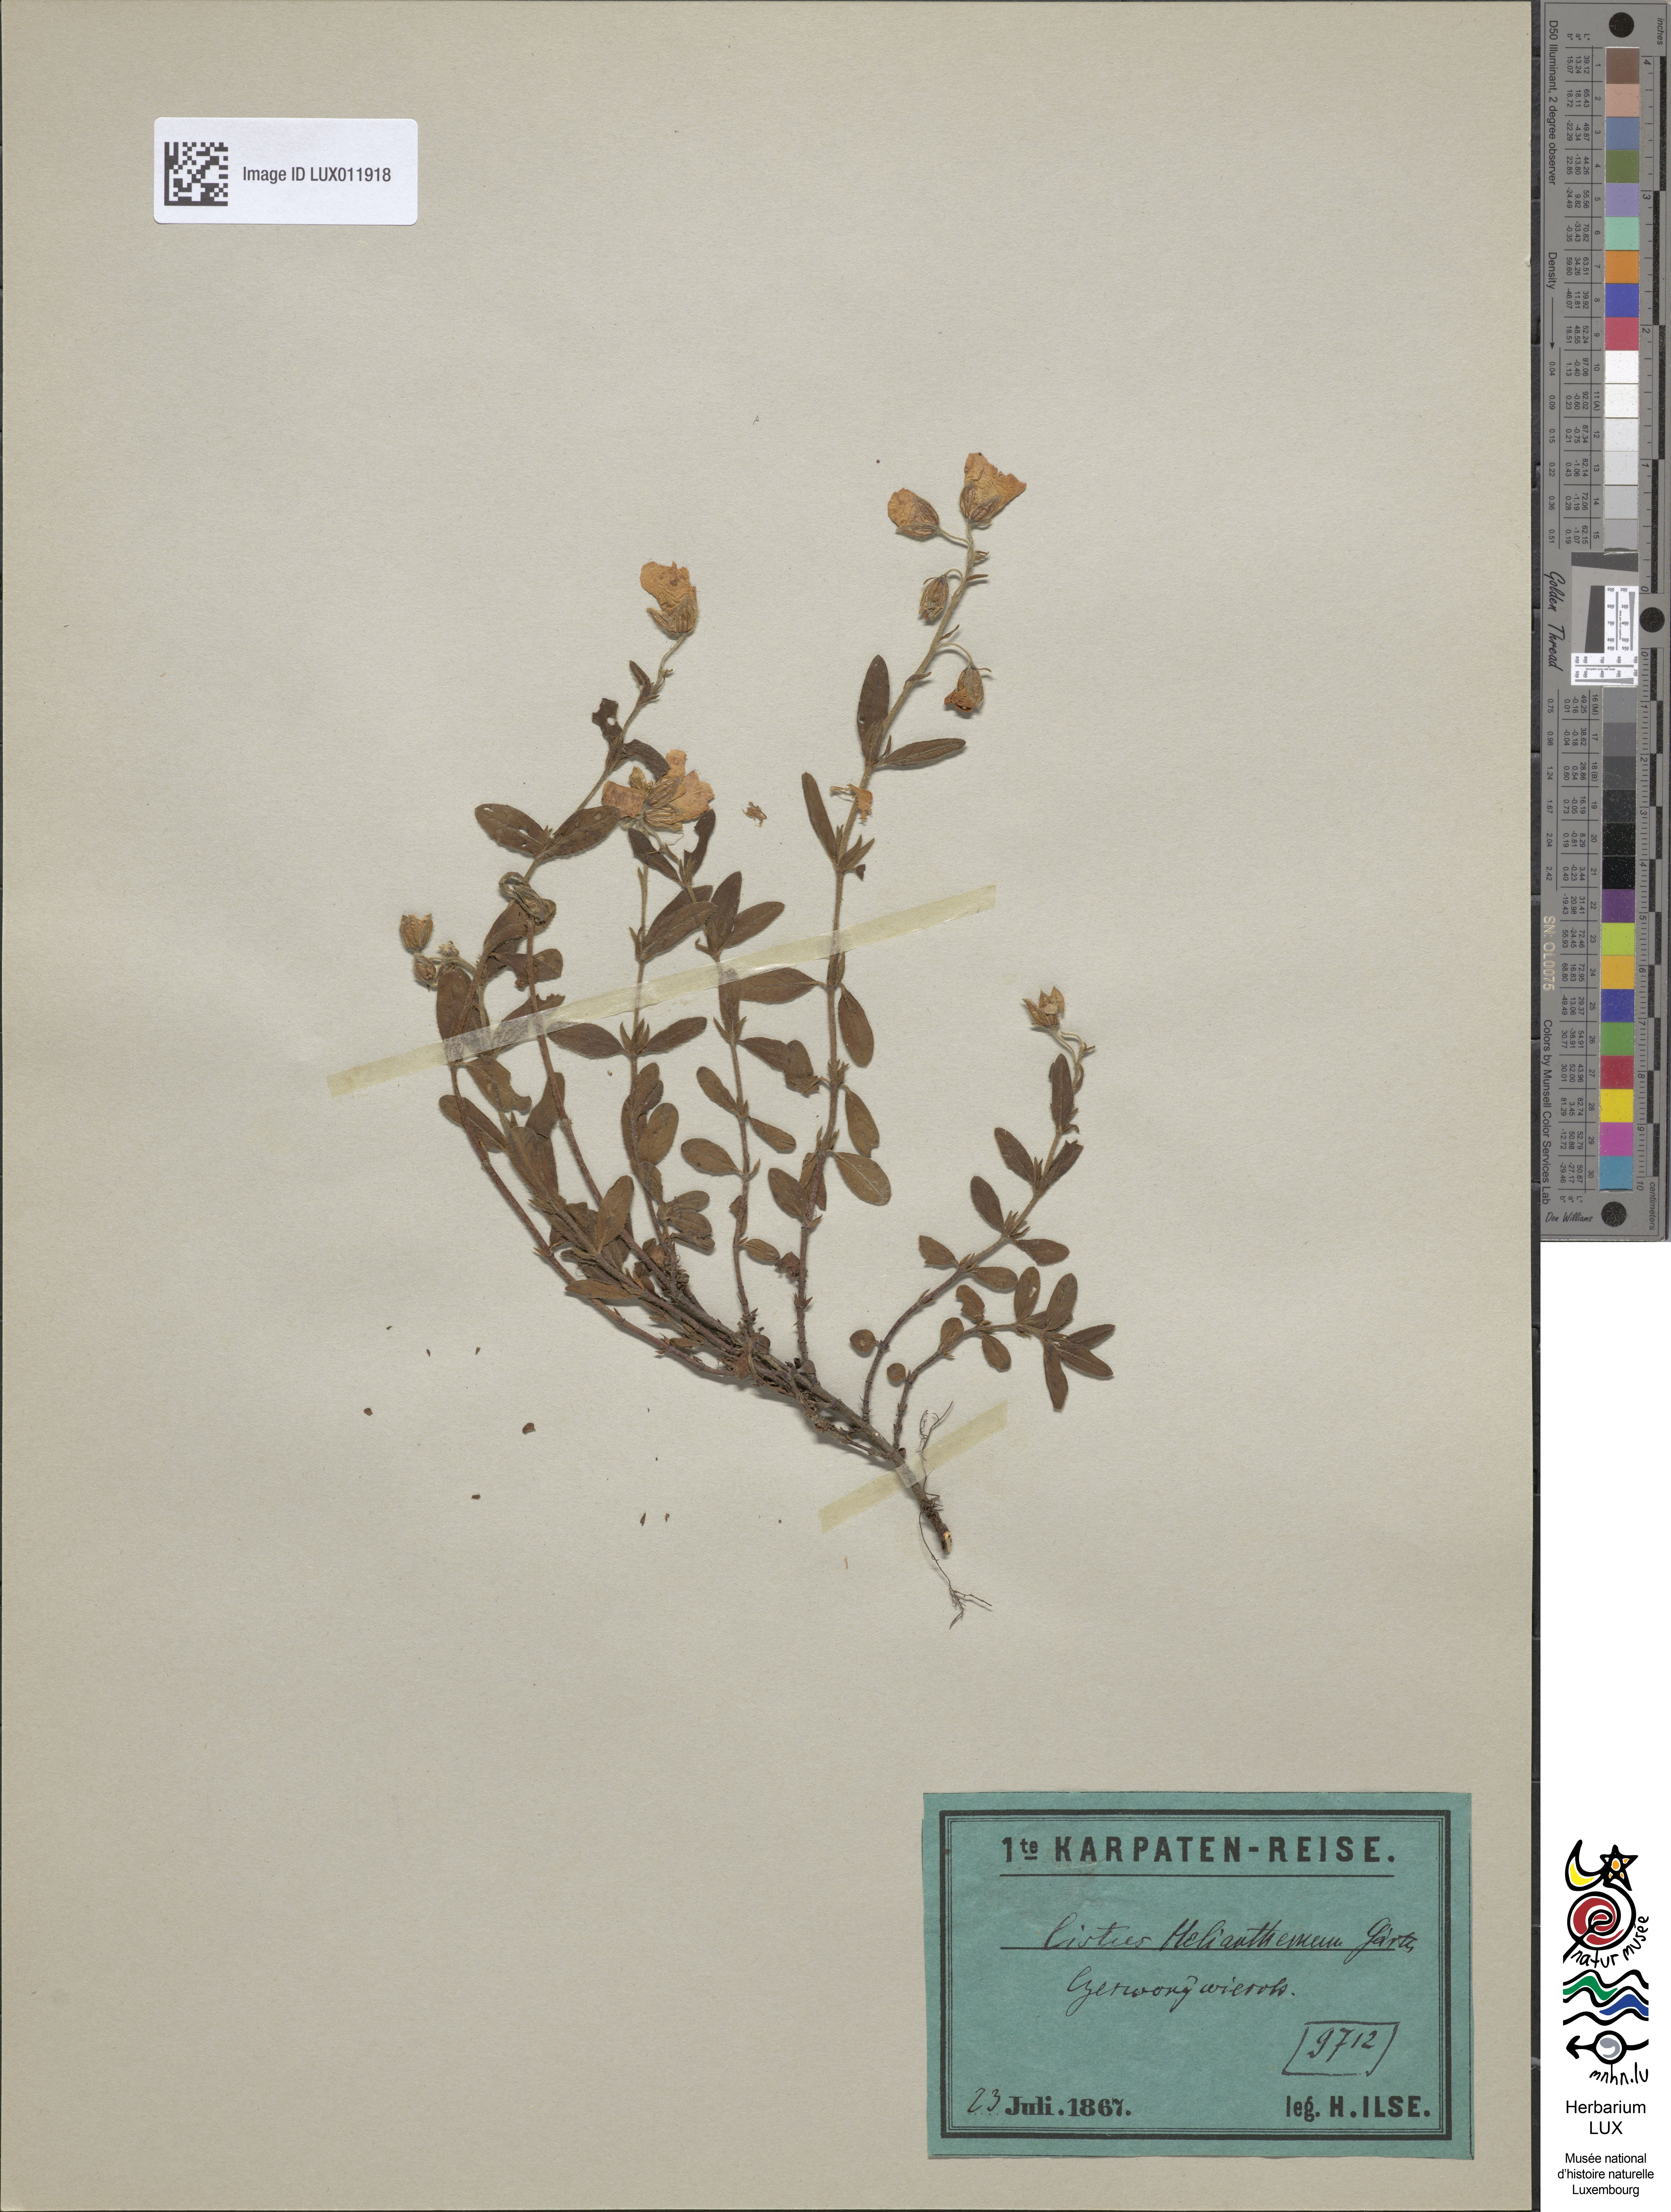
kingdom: Plantae
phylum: Tracheophyta
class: Magnoliopsida
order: Malvales
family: Cistaceae
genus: Helianthemum
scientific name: Helianthemum nummularium
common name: Common rock-rose
